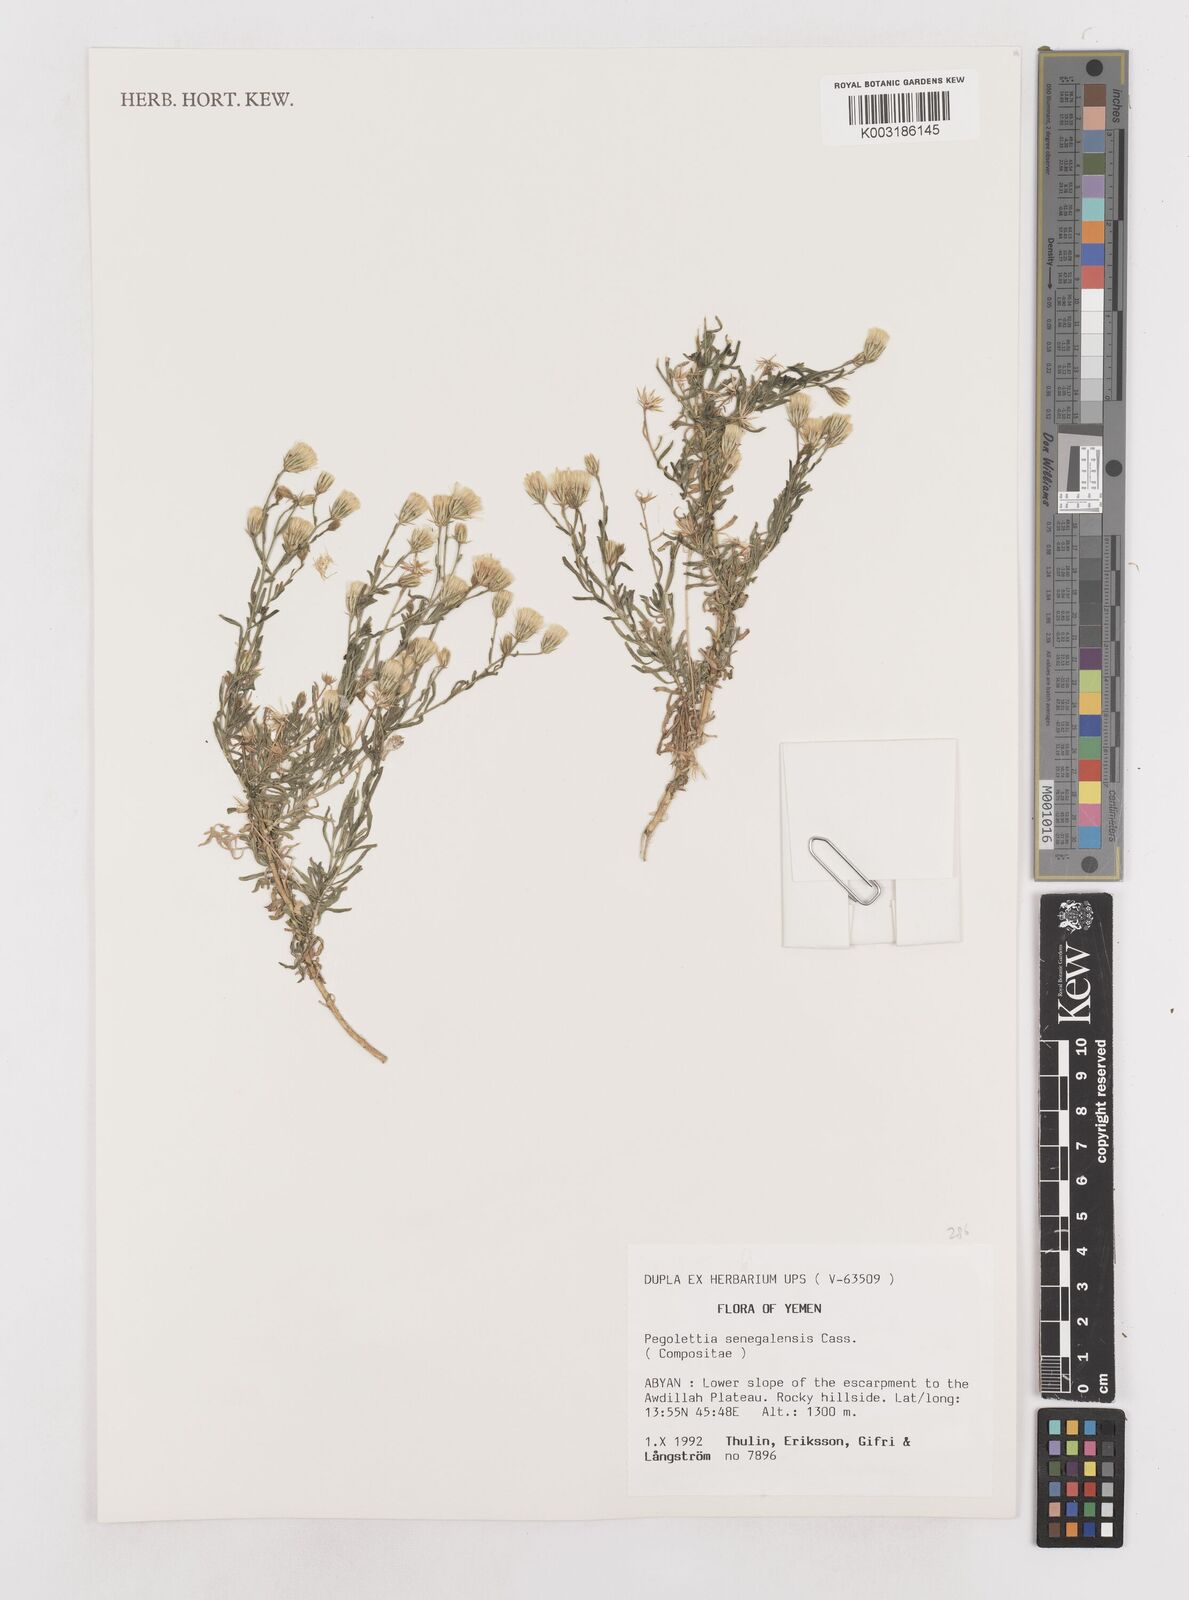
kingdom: Plantae
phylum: Tracheophyta
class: Magnoliopsida
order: Asterales
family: Asteraceae
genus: Pegolettia
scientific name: Pegolettia senegalensis
